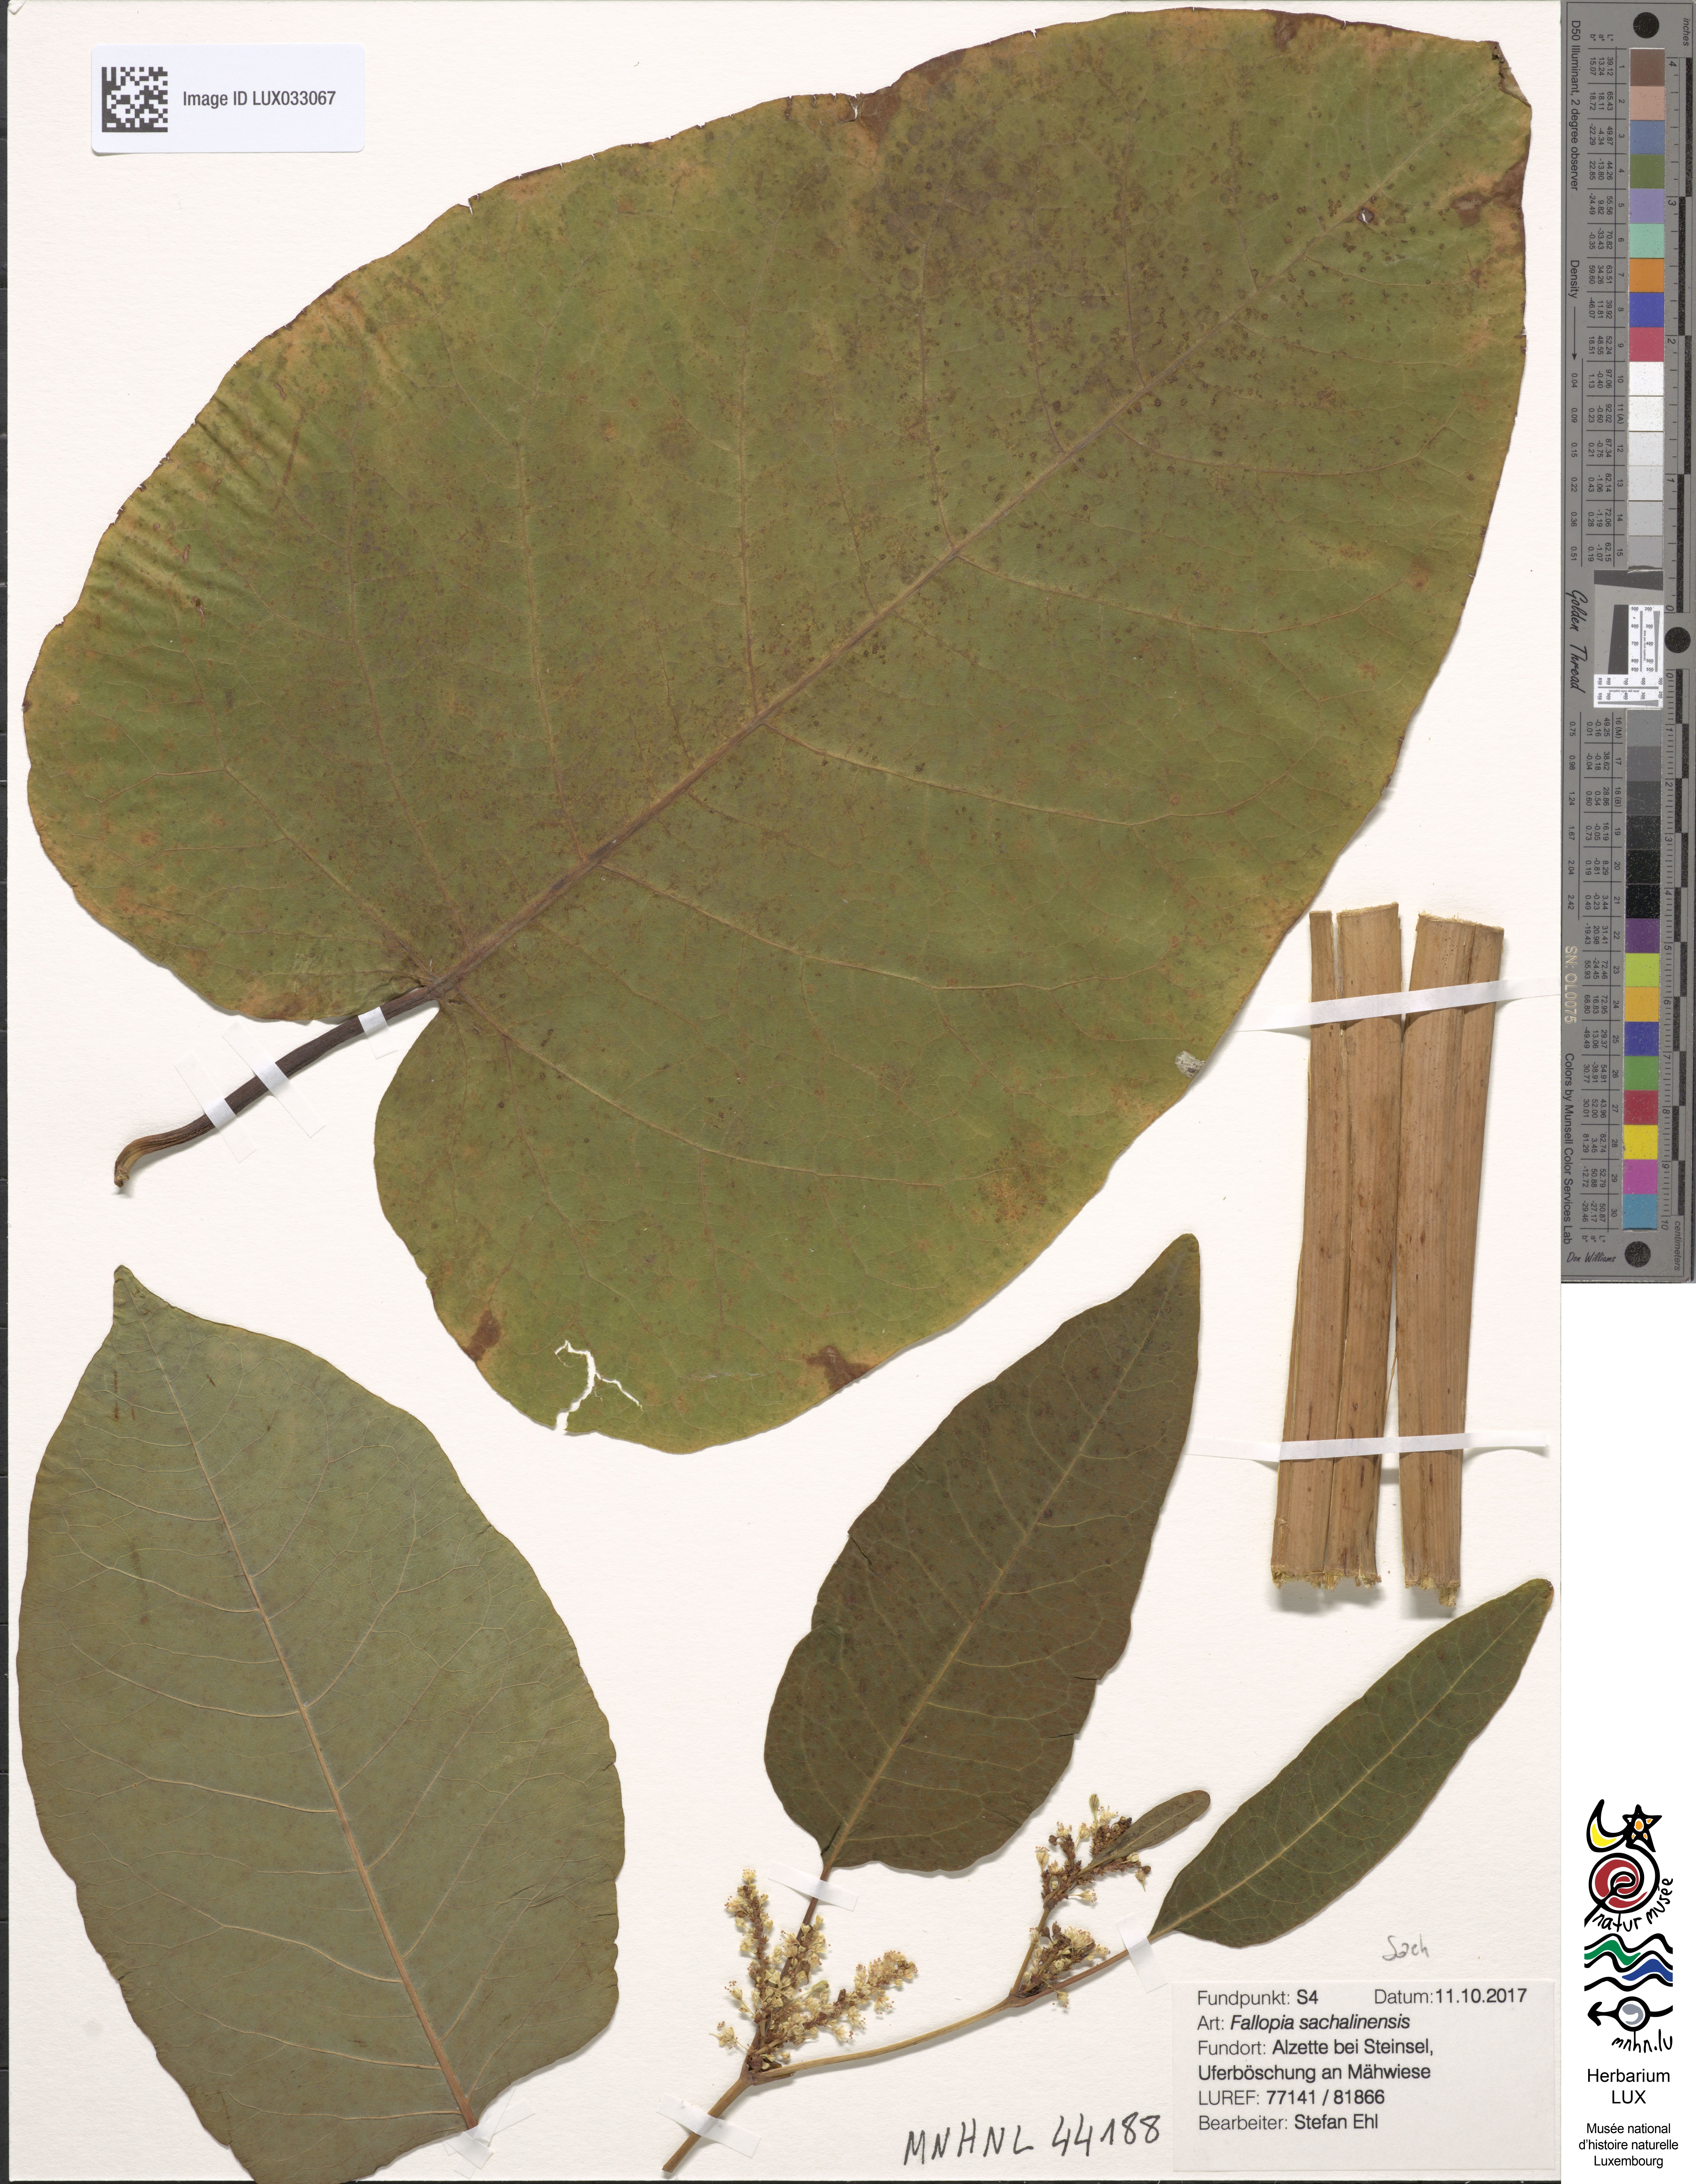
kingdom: Plantae
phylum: Tracheophyta
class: Magnoliopsida
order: Caryophyllales
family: Polygonaceae
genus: Reynoutria
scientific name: Reynoutria sachalinensis
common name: Giant knotweed
